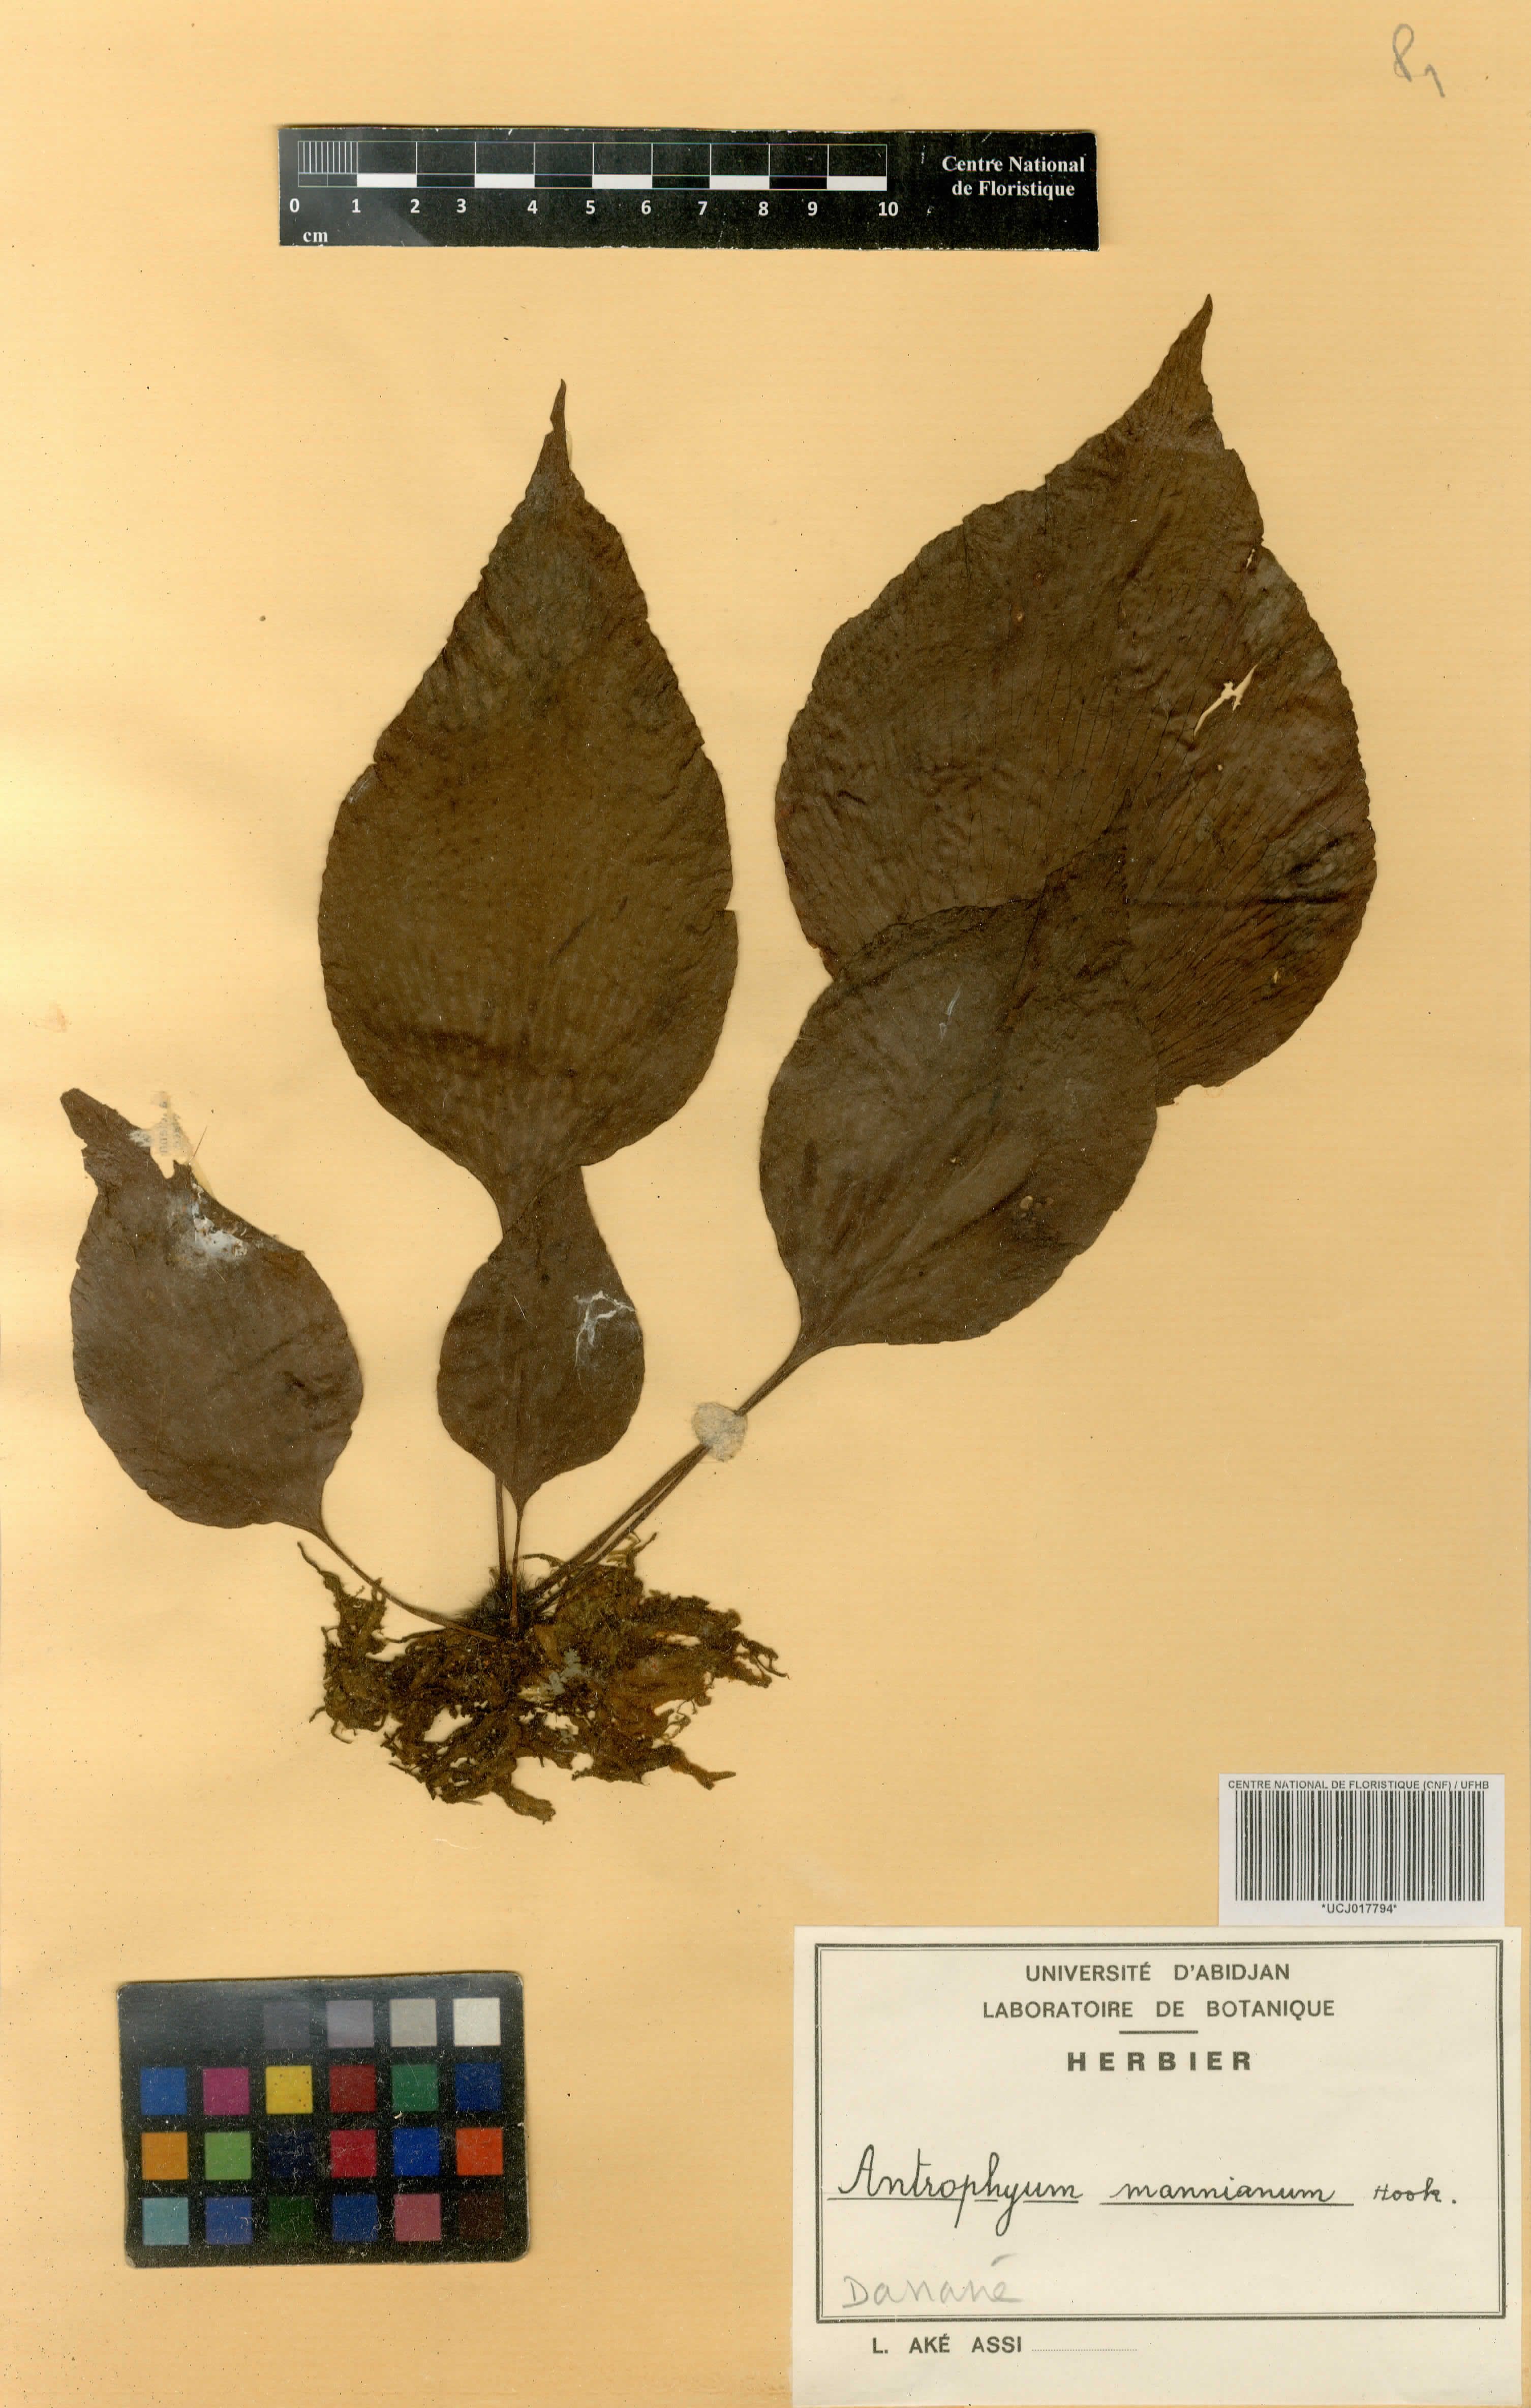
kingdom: Plantae
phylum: Tracheophyta
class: Polypodiopsida
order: Polypodiales
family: Pteridaceae
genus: Antrophyopsis
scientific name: Antrophyopsis manniana
